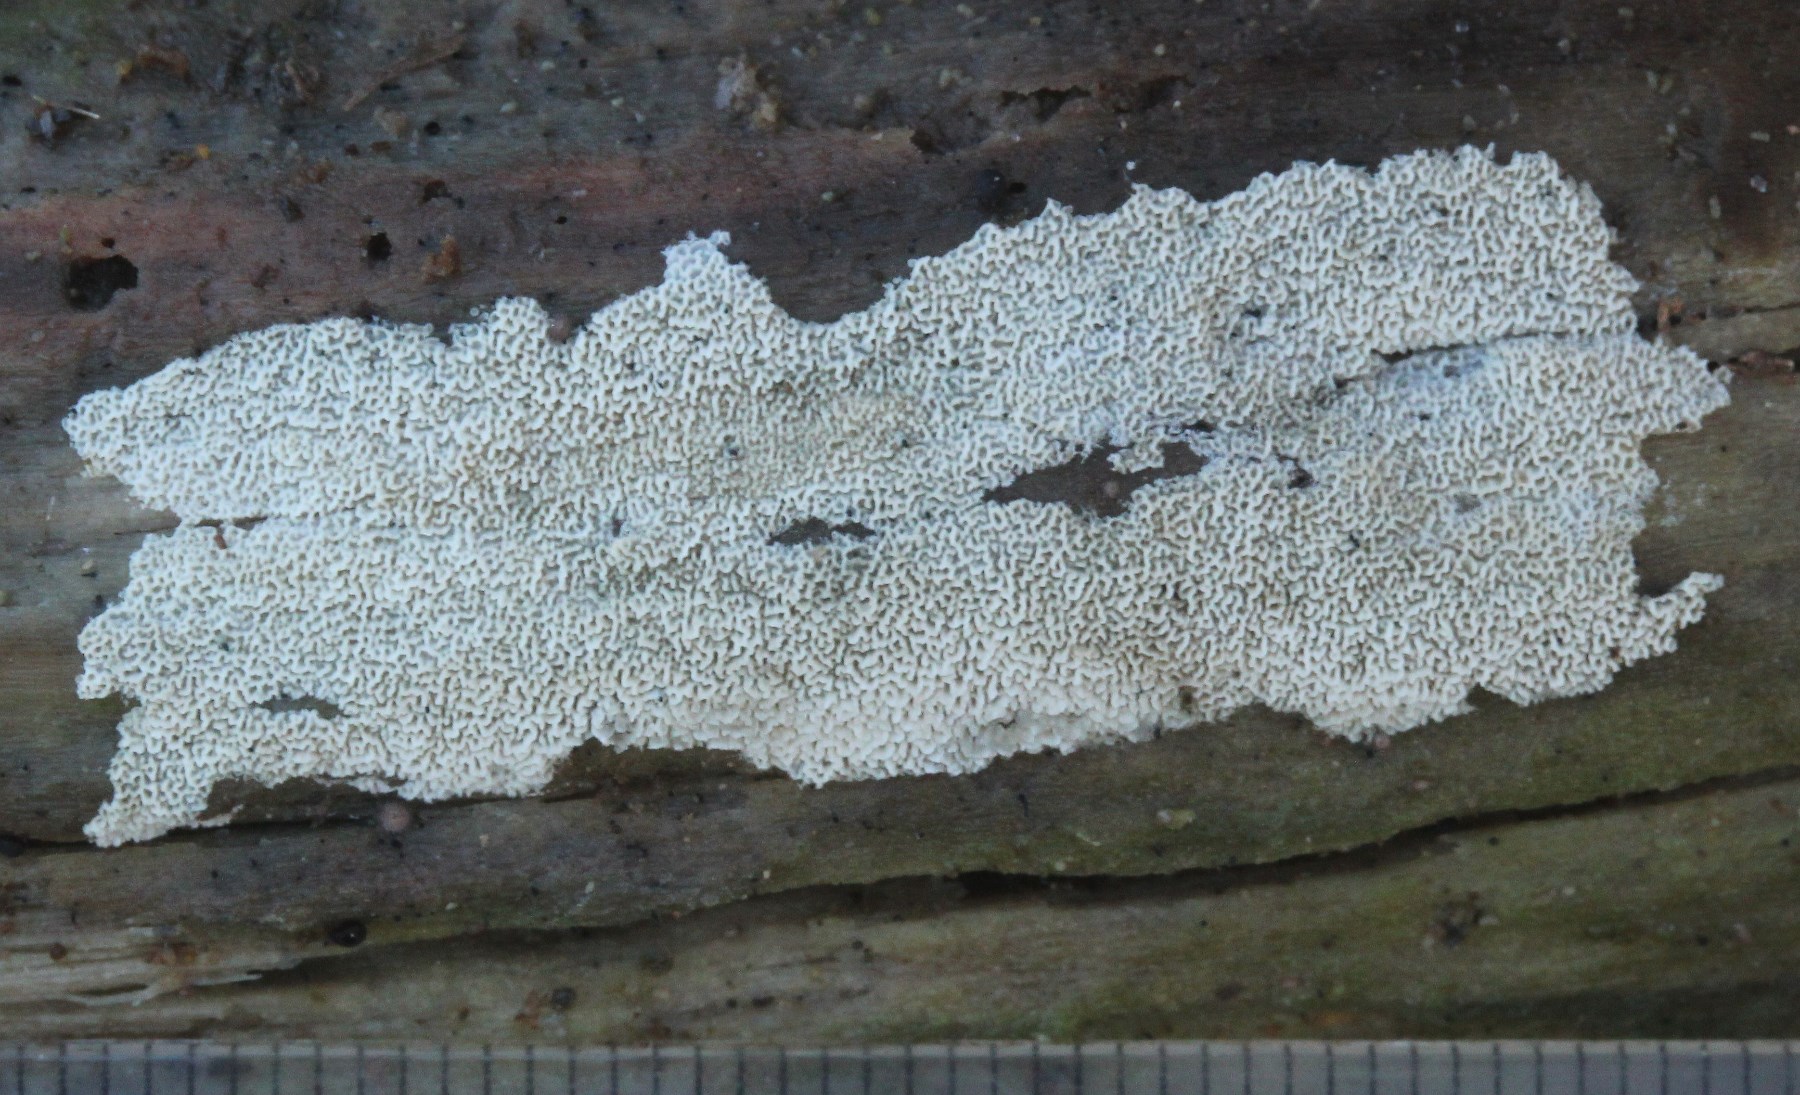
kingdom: Fungi
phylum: Basidiomycota
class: Agaricomycetes
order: Polyporales
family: Irpicaceae
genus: Ceriporia
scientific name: Ceriporia reticulata
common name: netagtig voksporesvamp
